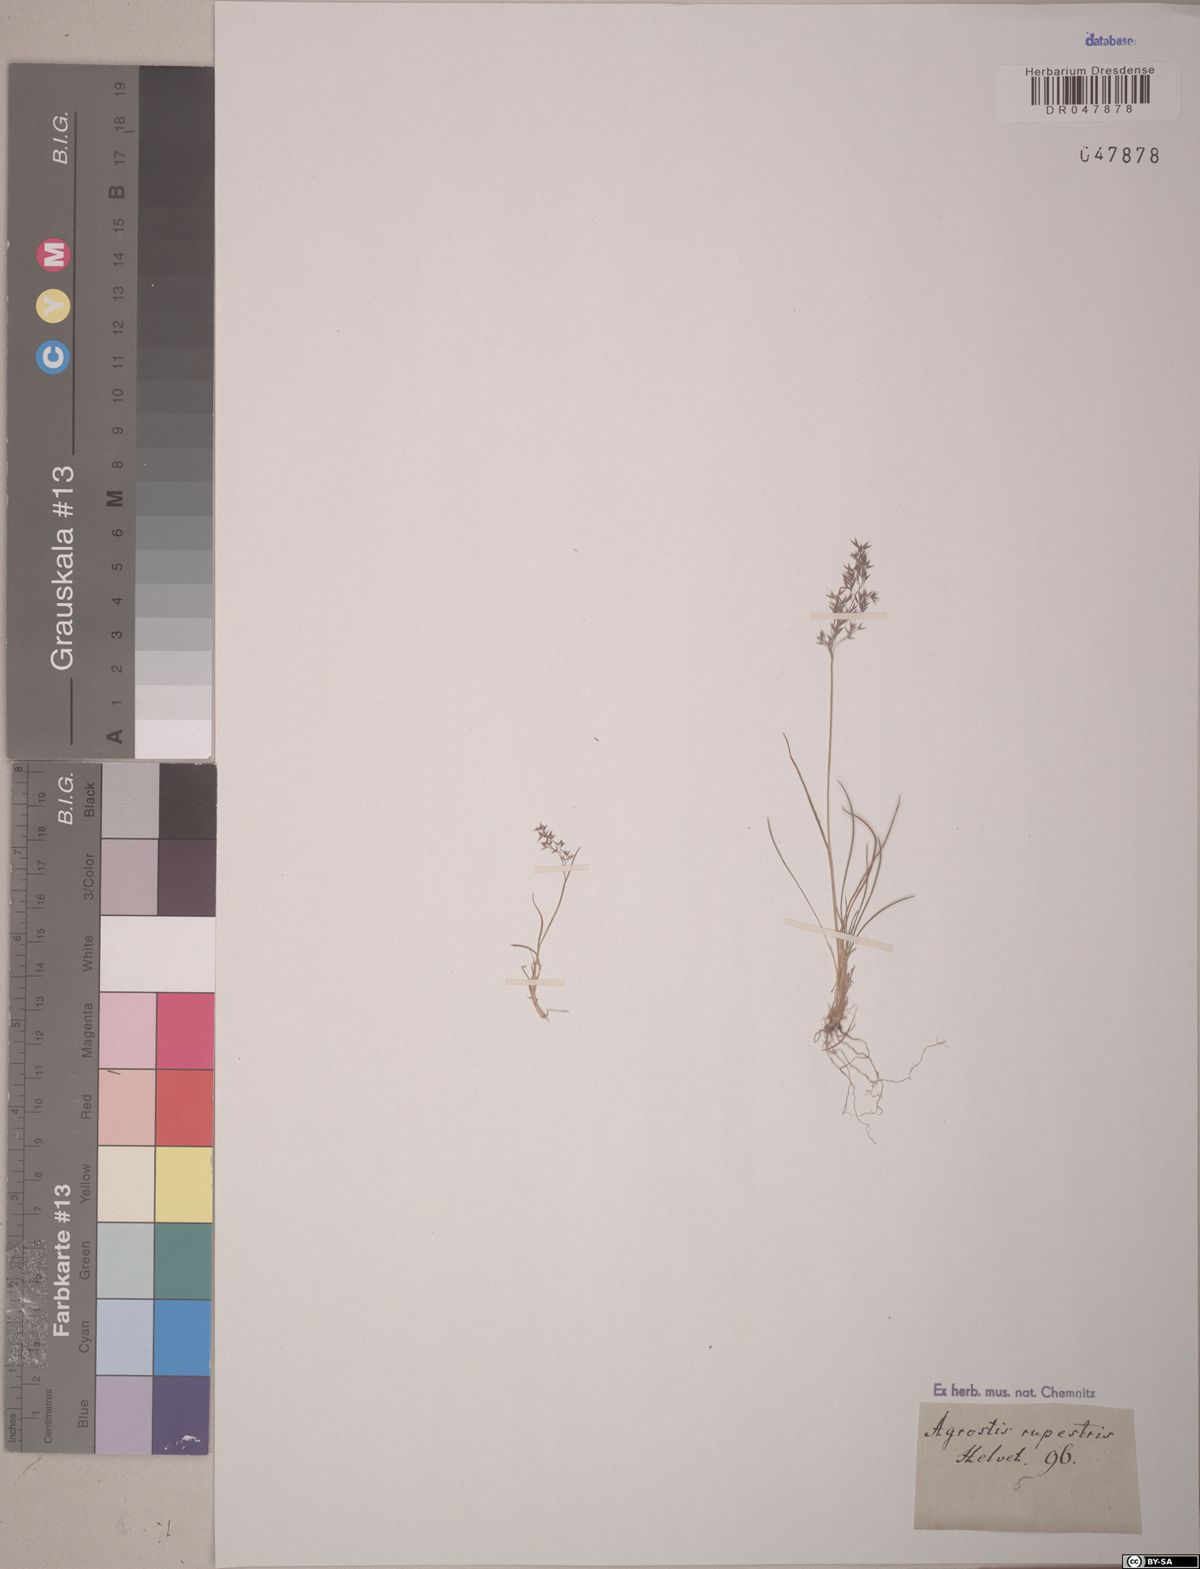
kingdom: Plantae
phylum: Tracheophyta
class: Liliopsida
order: Poales
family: Poaceae
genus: Agrostis
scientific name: Agrostis rupestris
